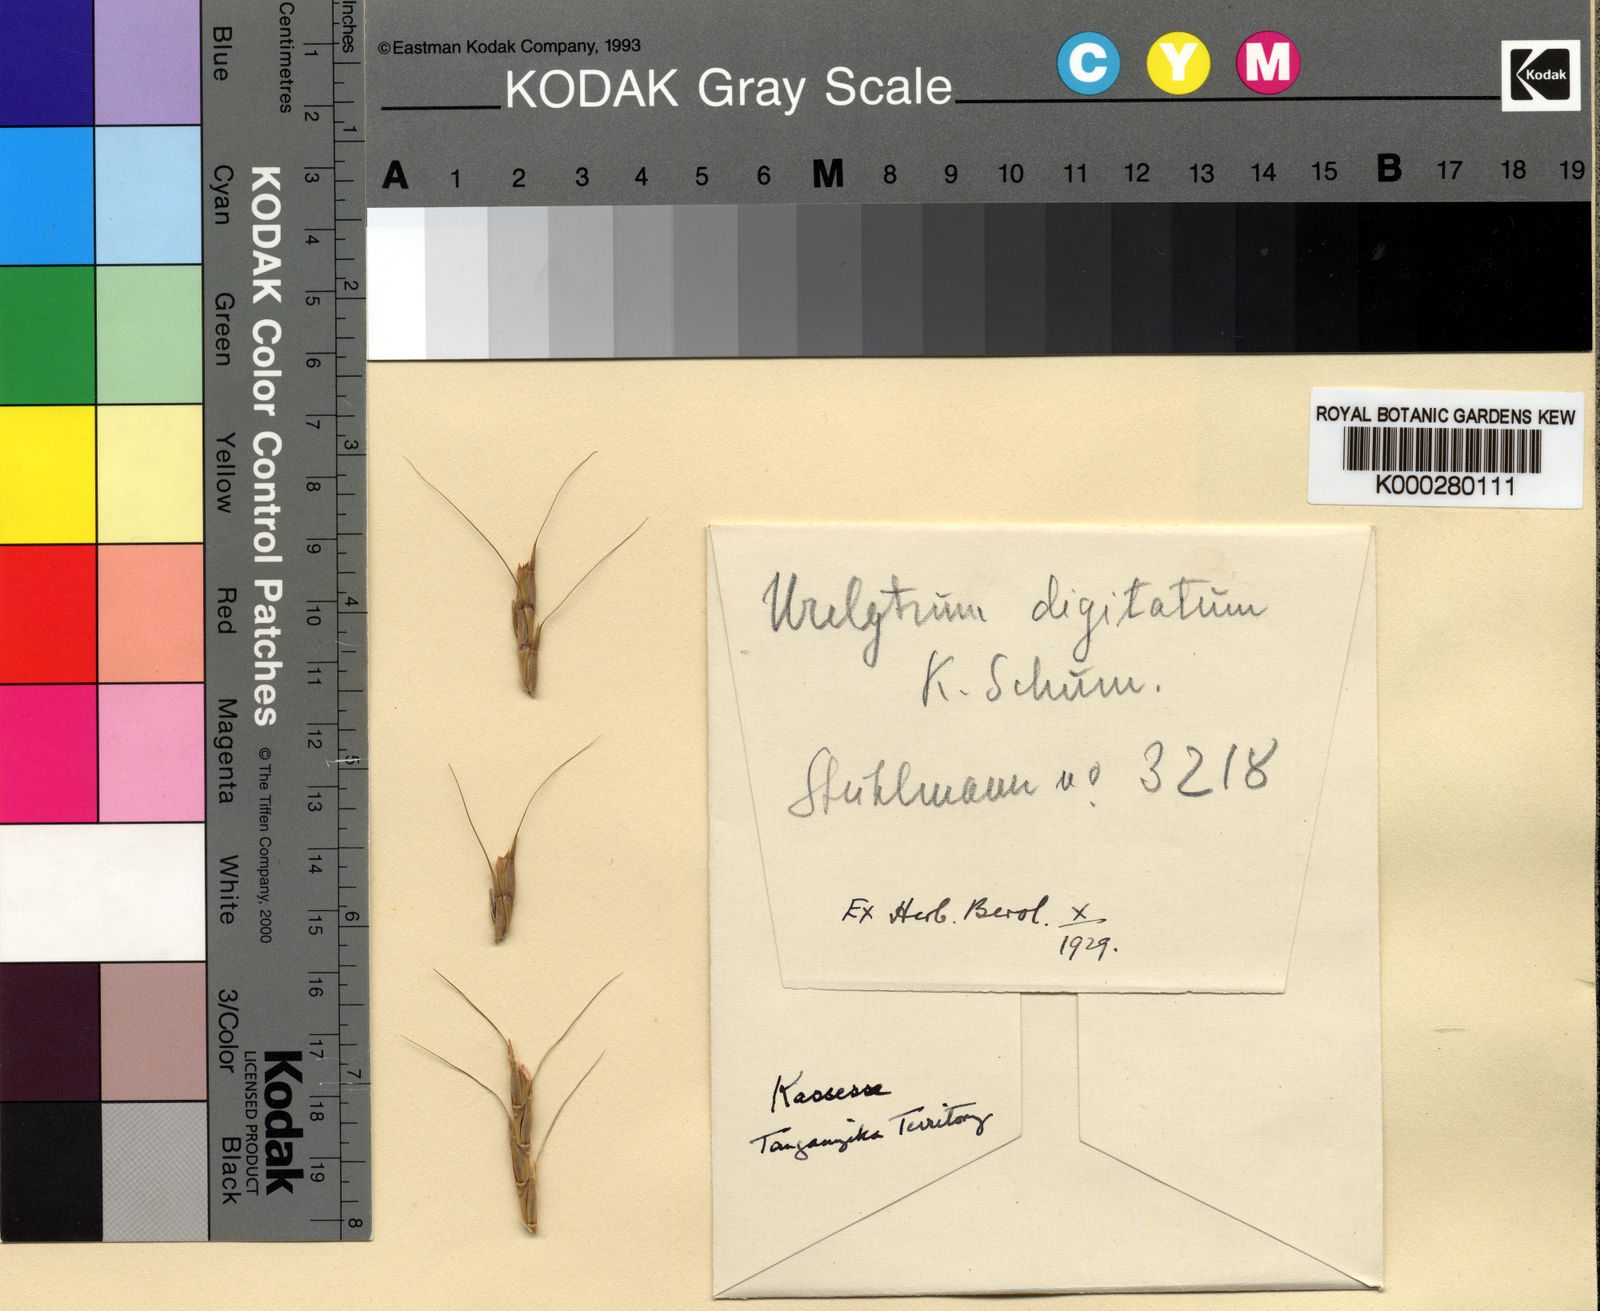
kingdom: Plantae
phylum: Tracheophyta
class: Liliopsida
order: Poales
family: Poaceae
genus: Urelytrum
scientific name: Urelytrum digitatum
